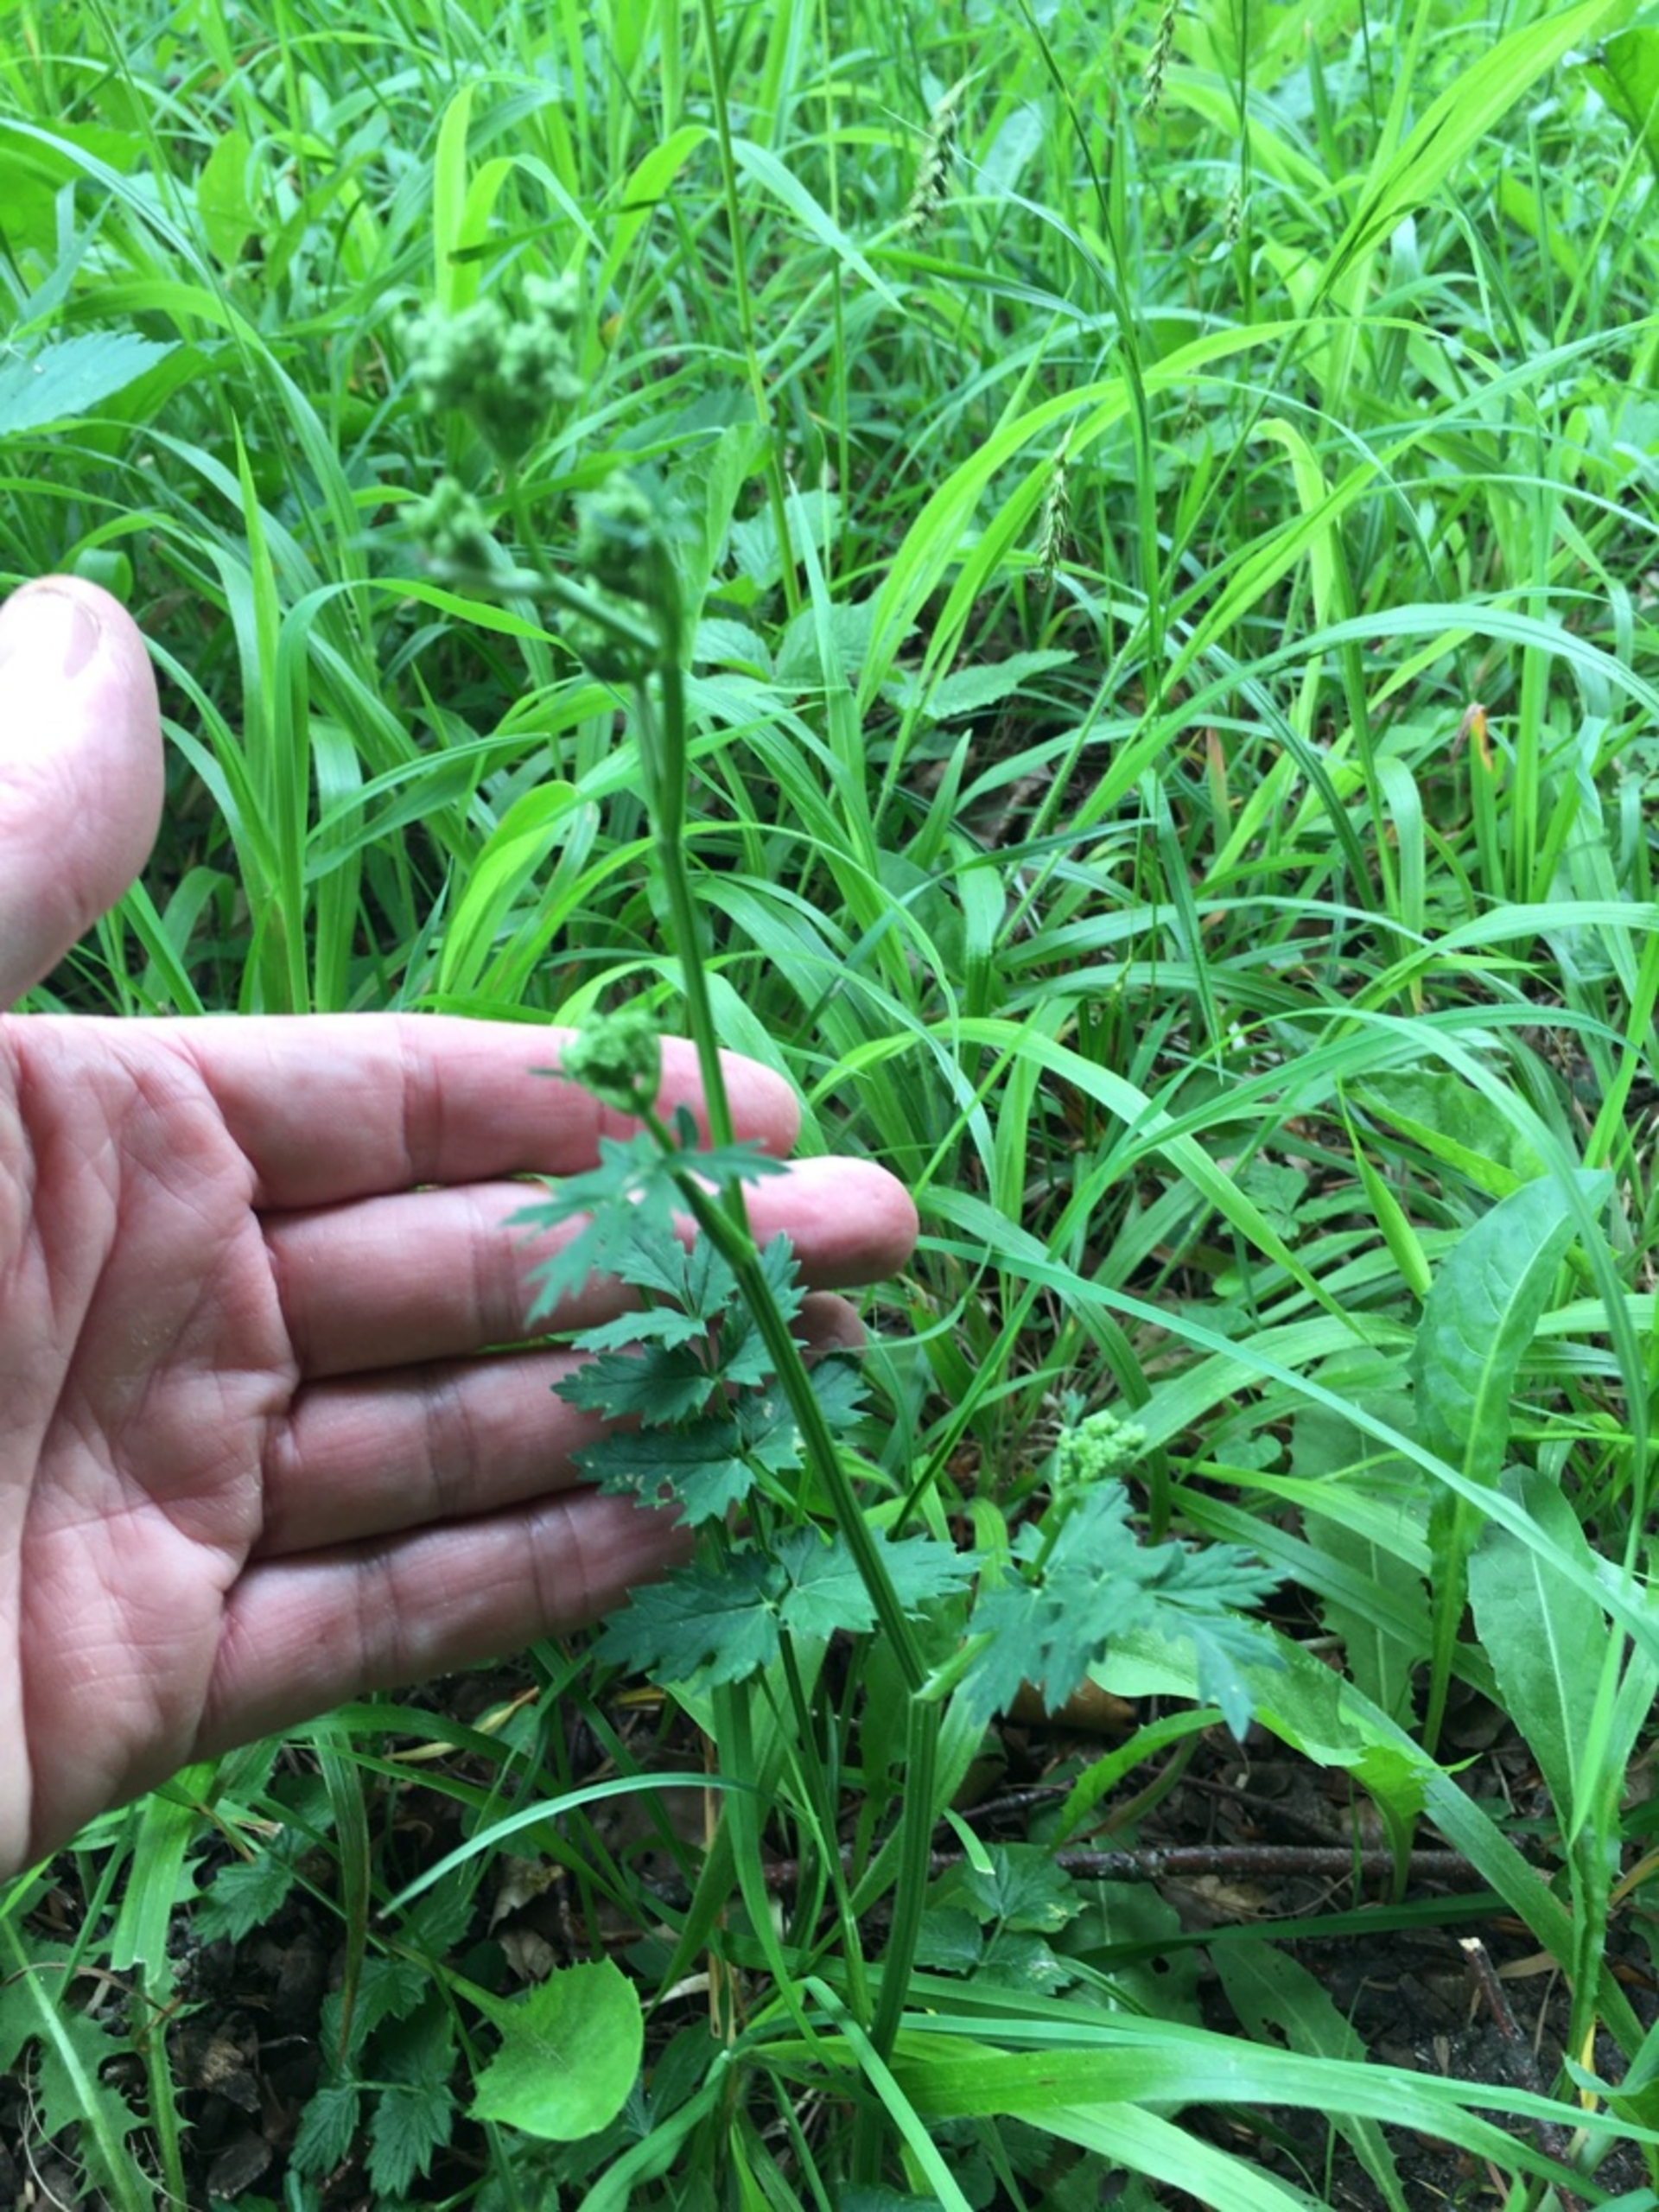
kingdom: Plantae
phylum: Tracheophyta
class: Magnoliopsida
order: Apiales
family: Apiaceae
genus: Pimpinella
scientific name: Pimpinella major
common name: Stor pimpinelle
